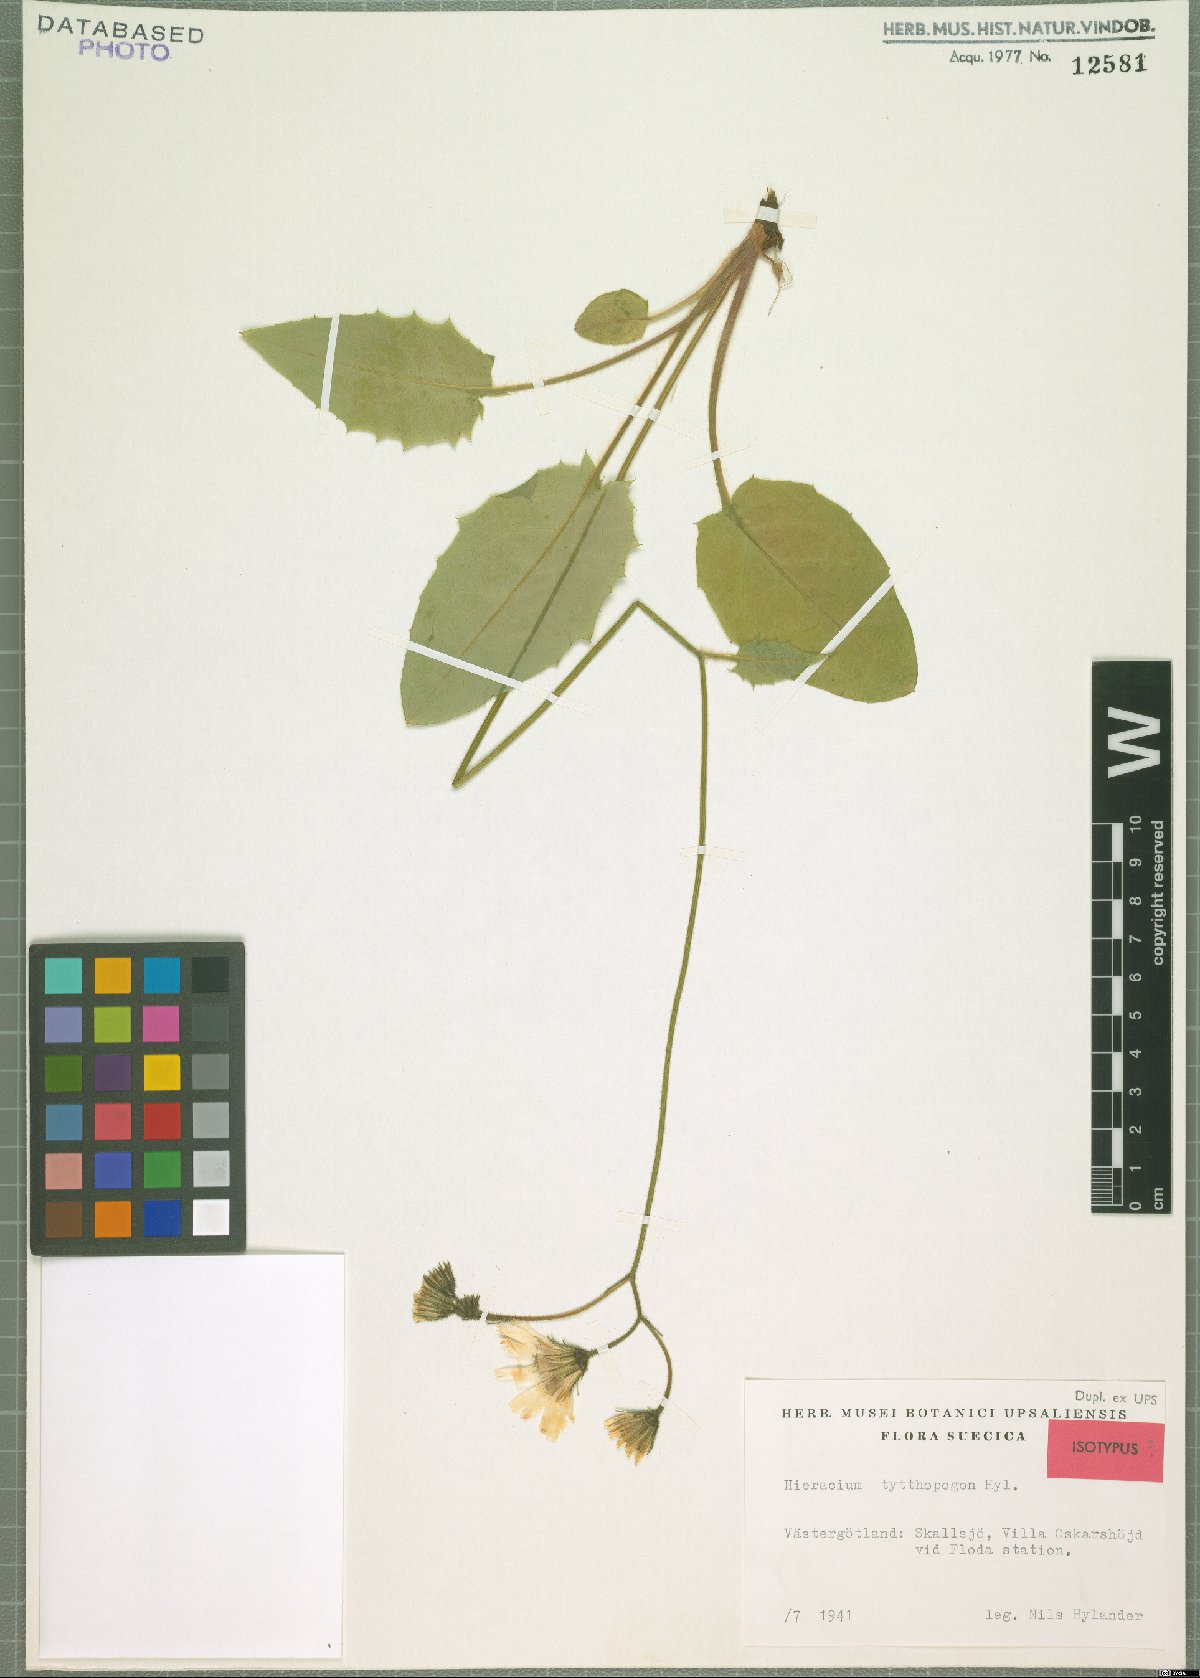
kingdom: Plantae
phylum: Tracheophyta
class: Magnoliopsida
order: Asterales
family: Asteraceae
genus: Hieracium
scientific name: Hieracium tytthopogon
